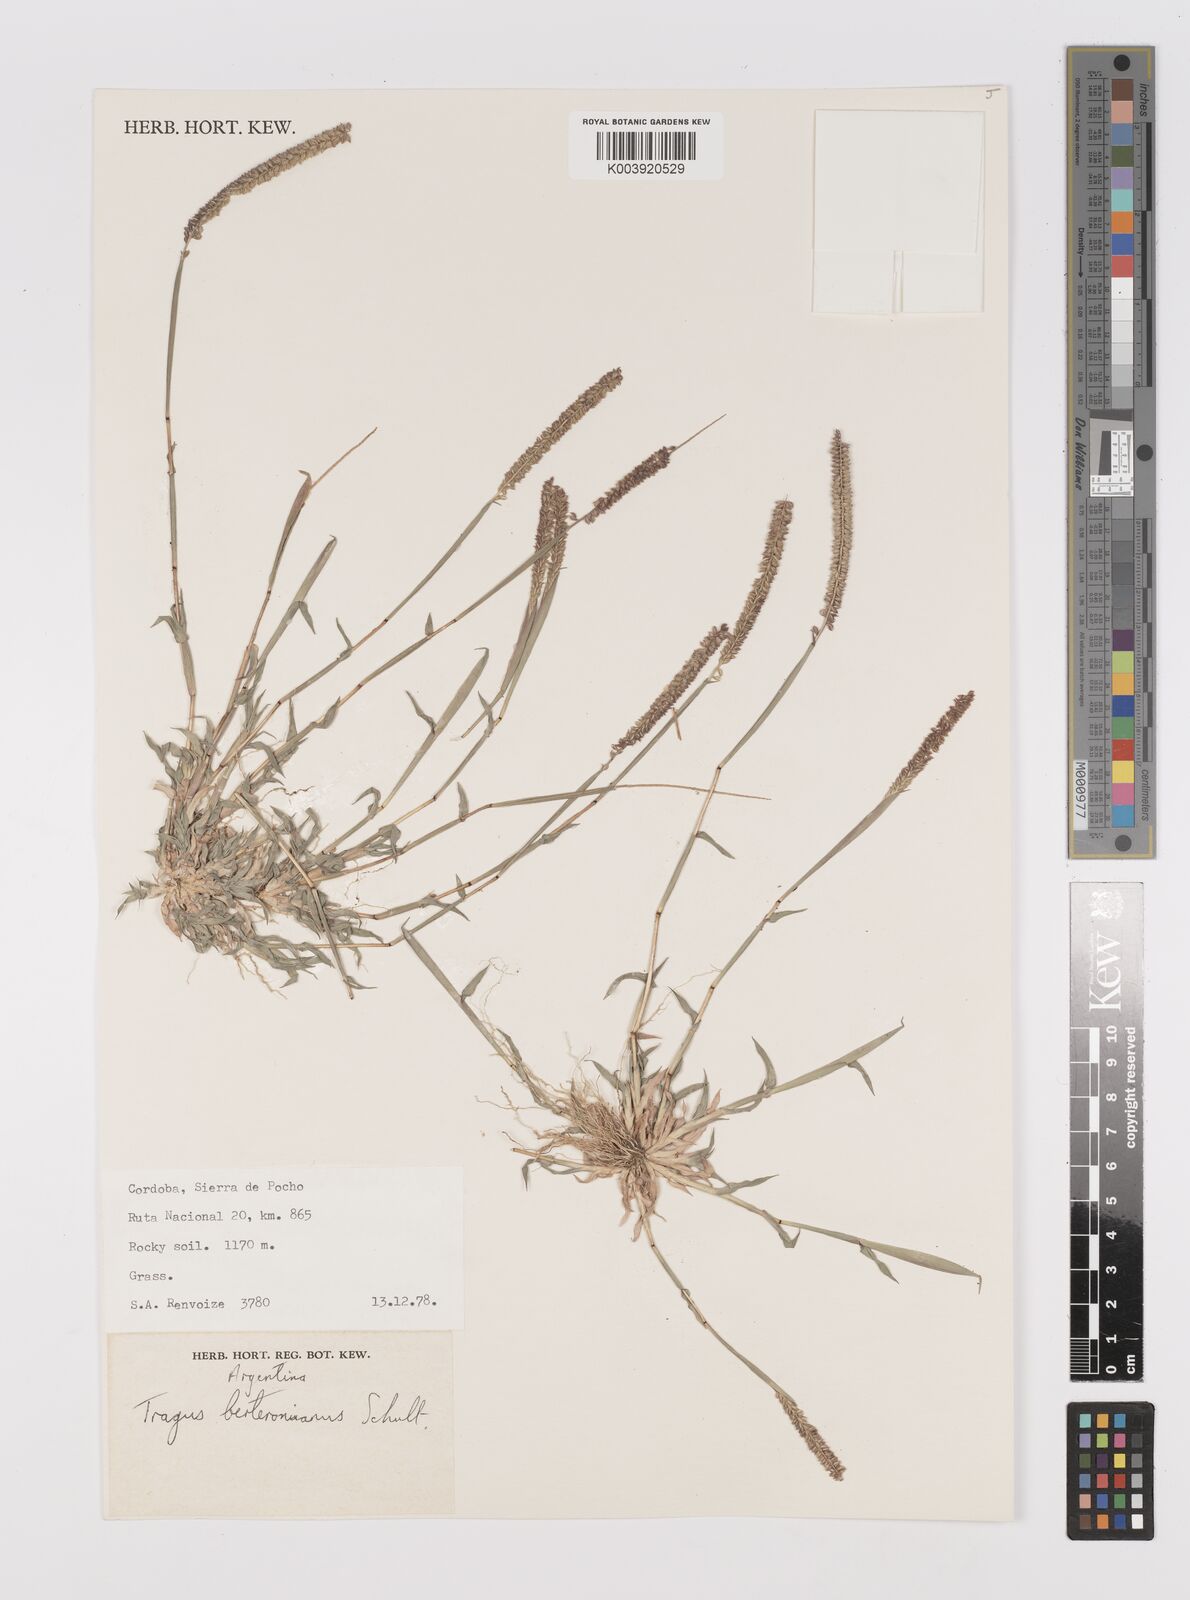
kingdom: Plantae
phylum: Tracheophyta
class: Liliopsida
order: Poales
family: Poaceae
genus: Tragus
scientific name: Tragus berteronianus
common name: African bur-grass
